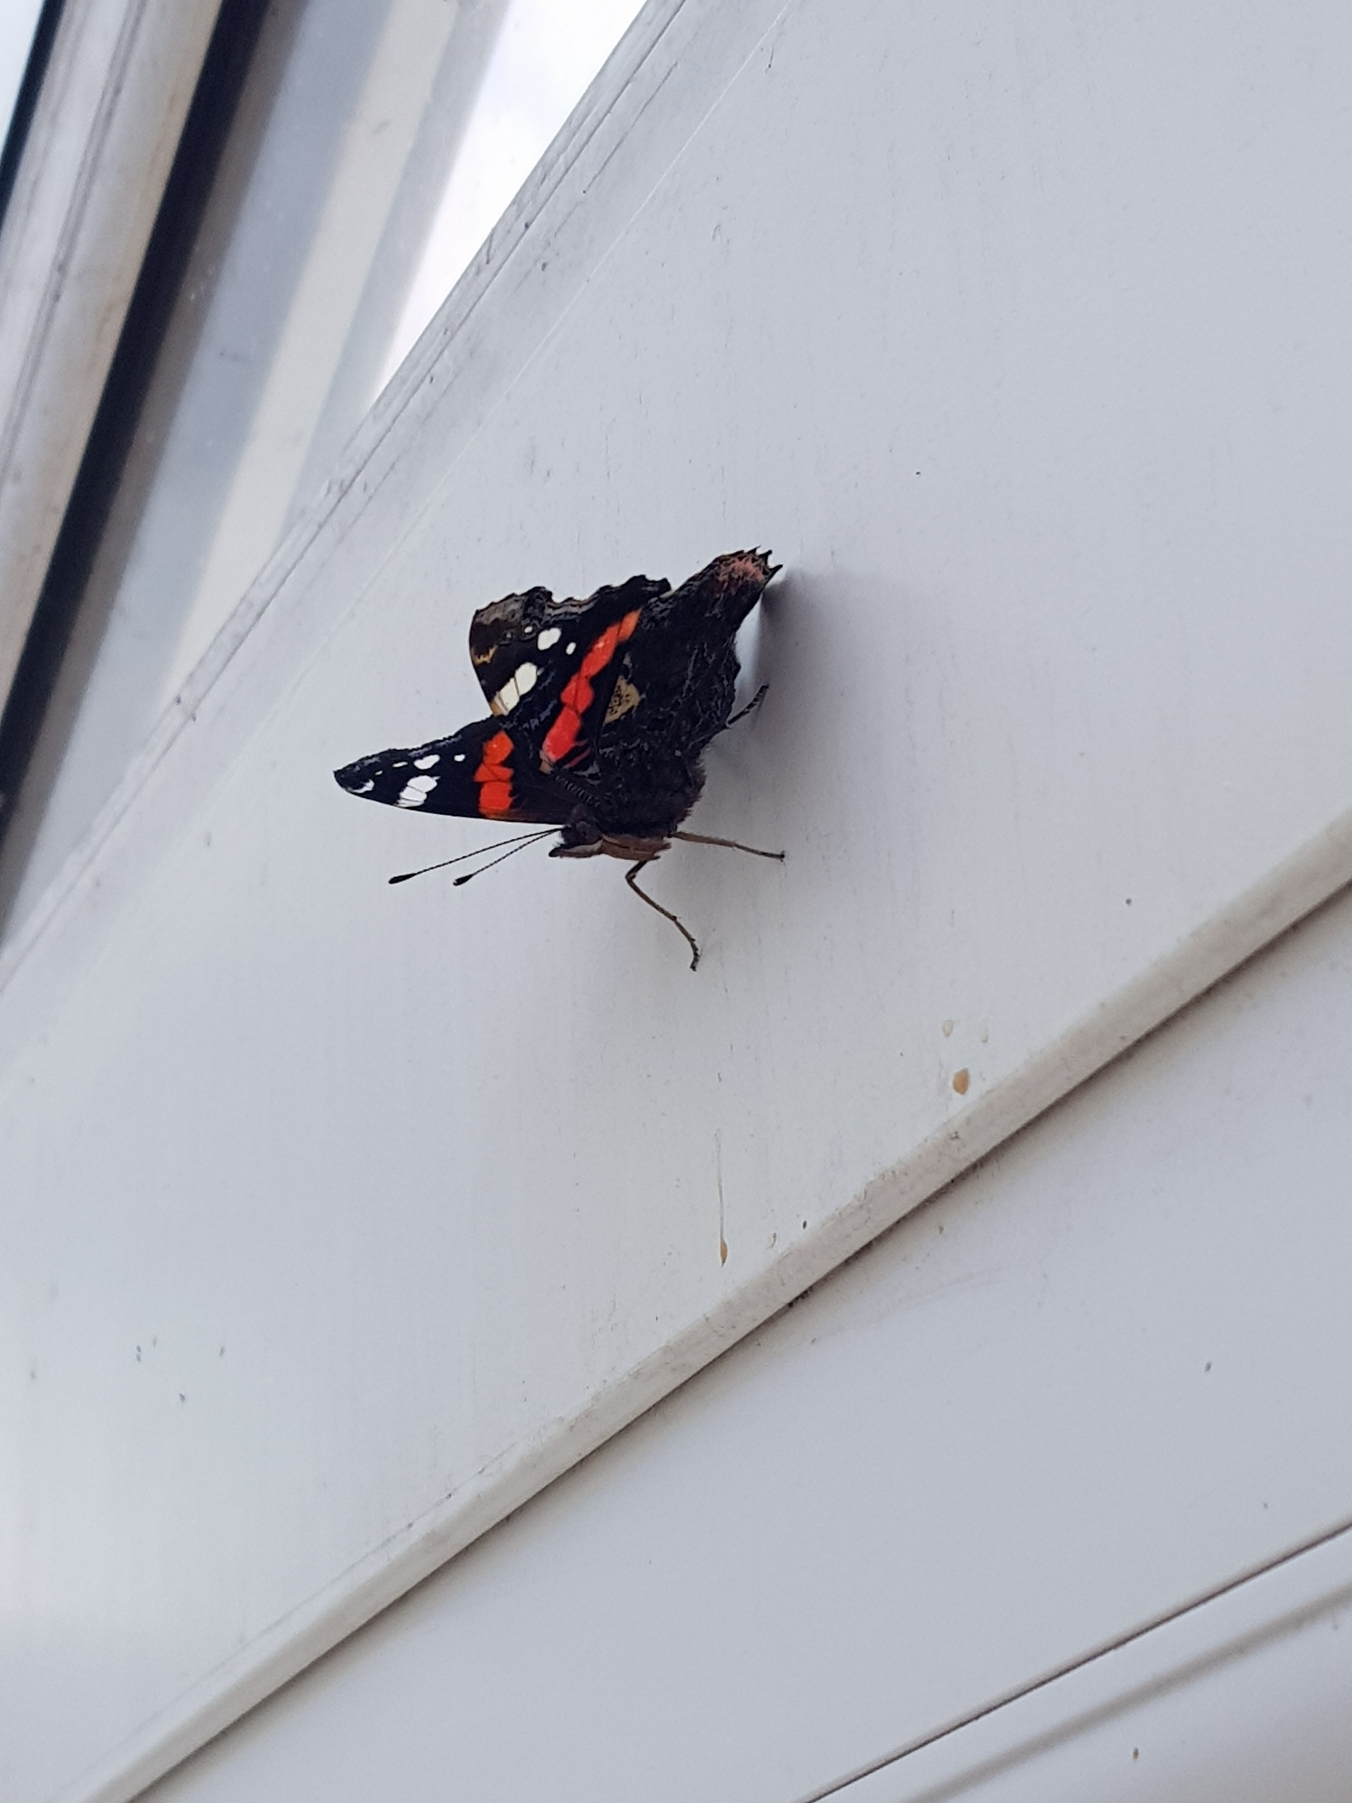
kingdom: Animalia
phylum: Arthropoda
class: Insecta
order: Lepidoptera
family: Nymphalidae
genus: Vanessa
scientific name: Vanessa atalanta
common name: Admiral
